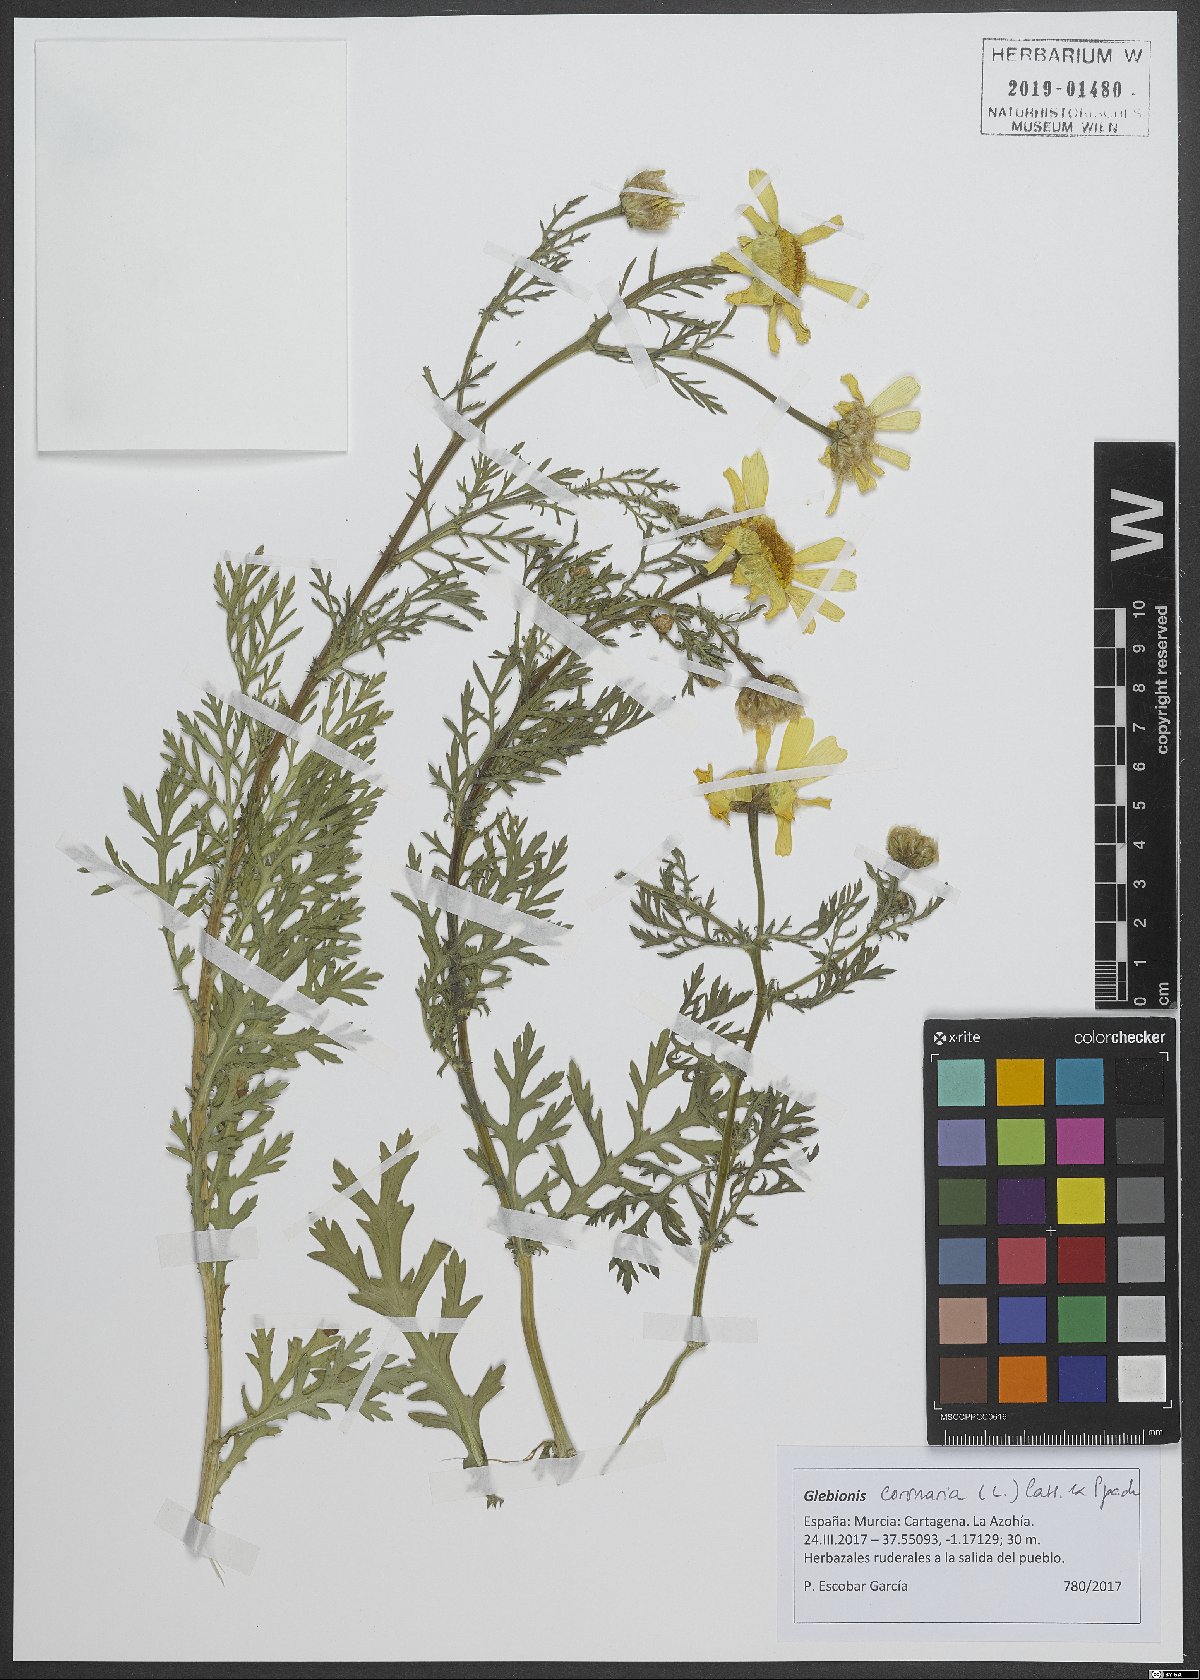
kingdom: Plantae
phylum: Tracheophyta
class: Magnoliopsida
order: Asterales
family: Asteraceae
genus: Glebionis
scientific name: Glebionis coronaria
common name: Crowndaisy
